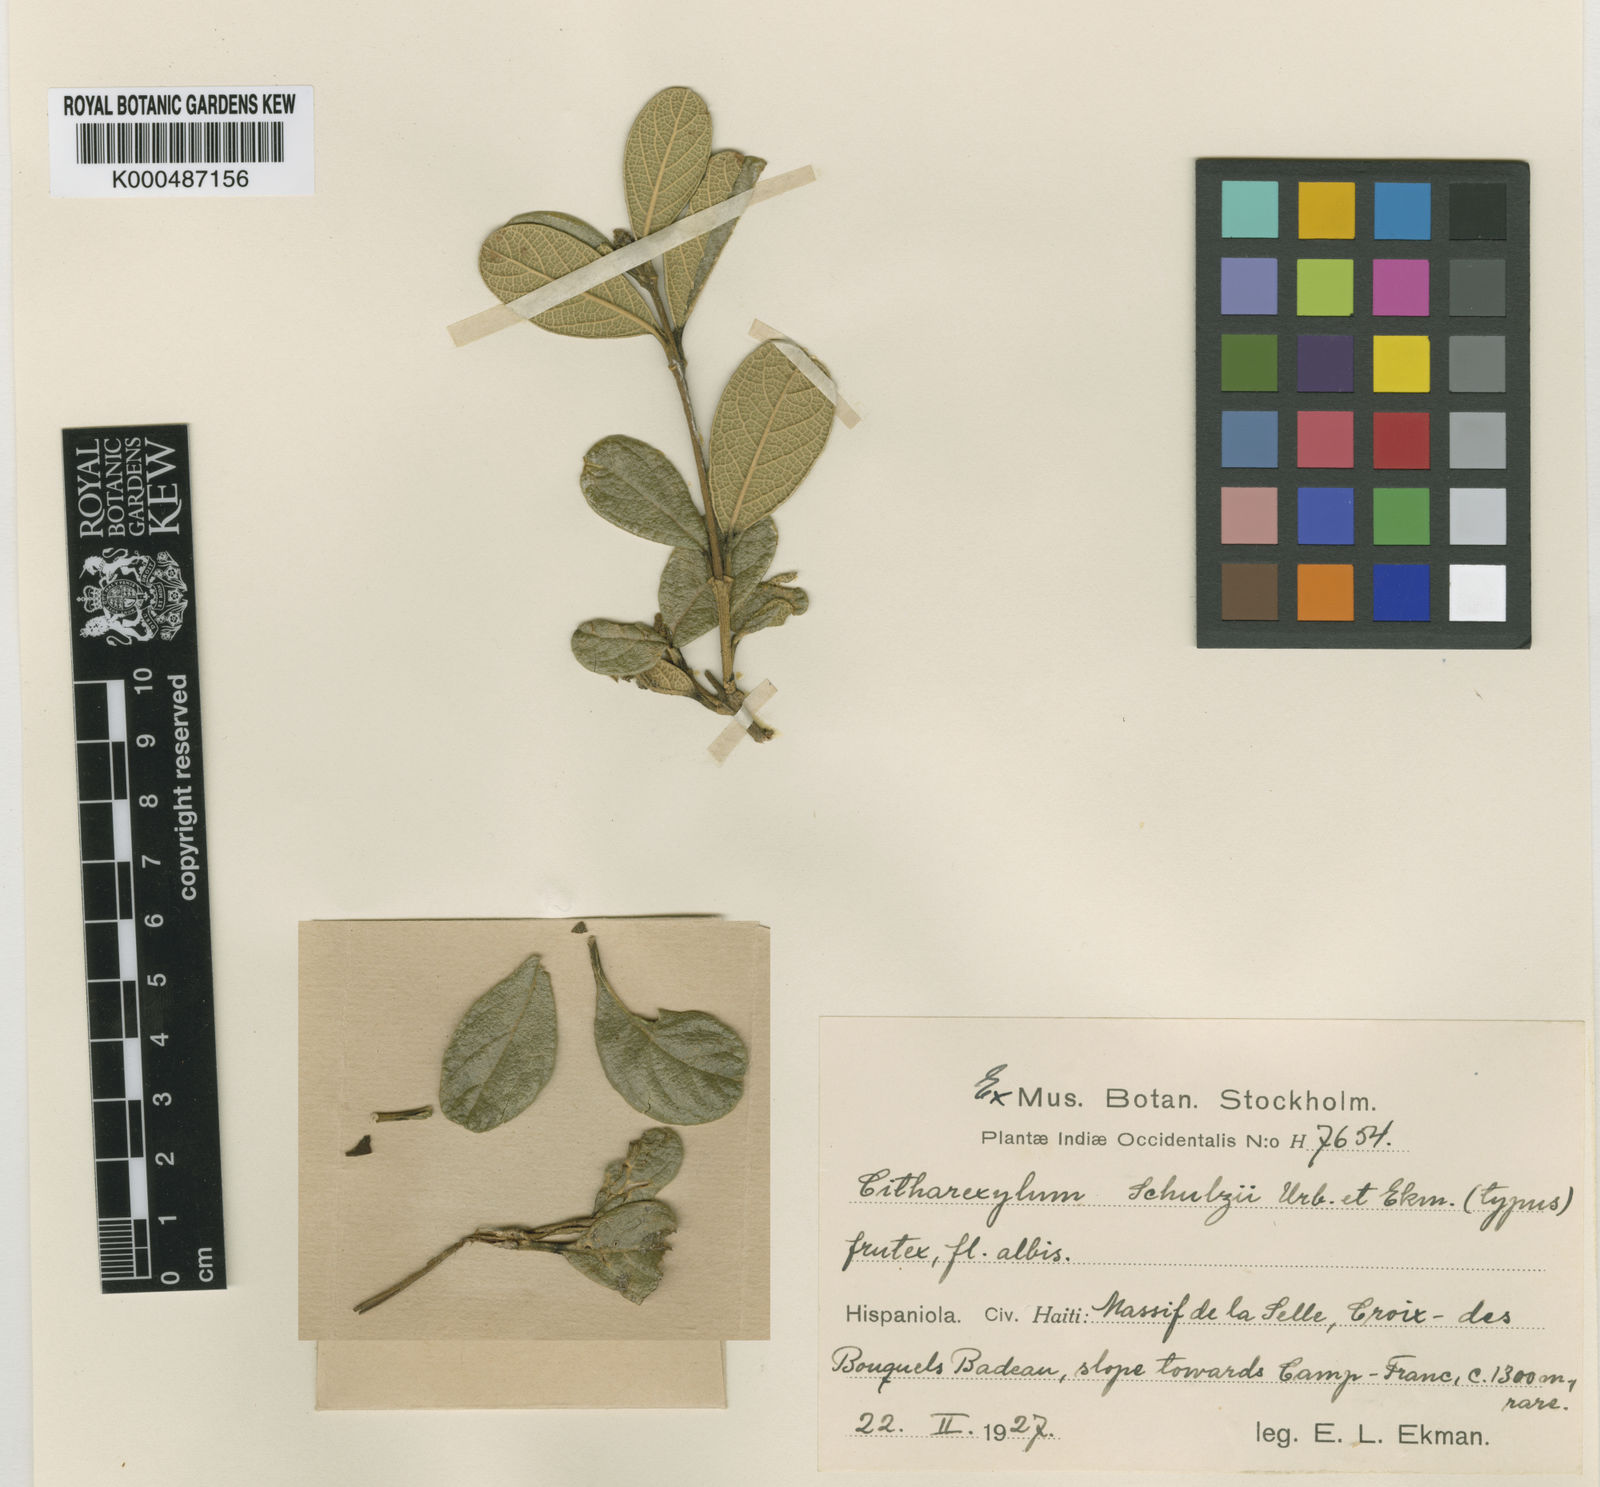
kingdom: Plantae
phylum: Tracheophyta
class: Magnoliopsida
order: Lamiales
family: Verbenaceae
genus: Citharexylum
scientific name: Citharexylum schulzii
